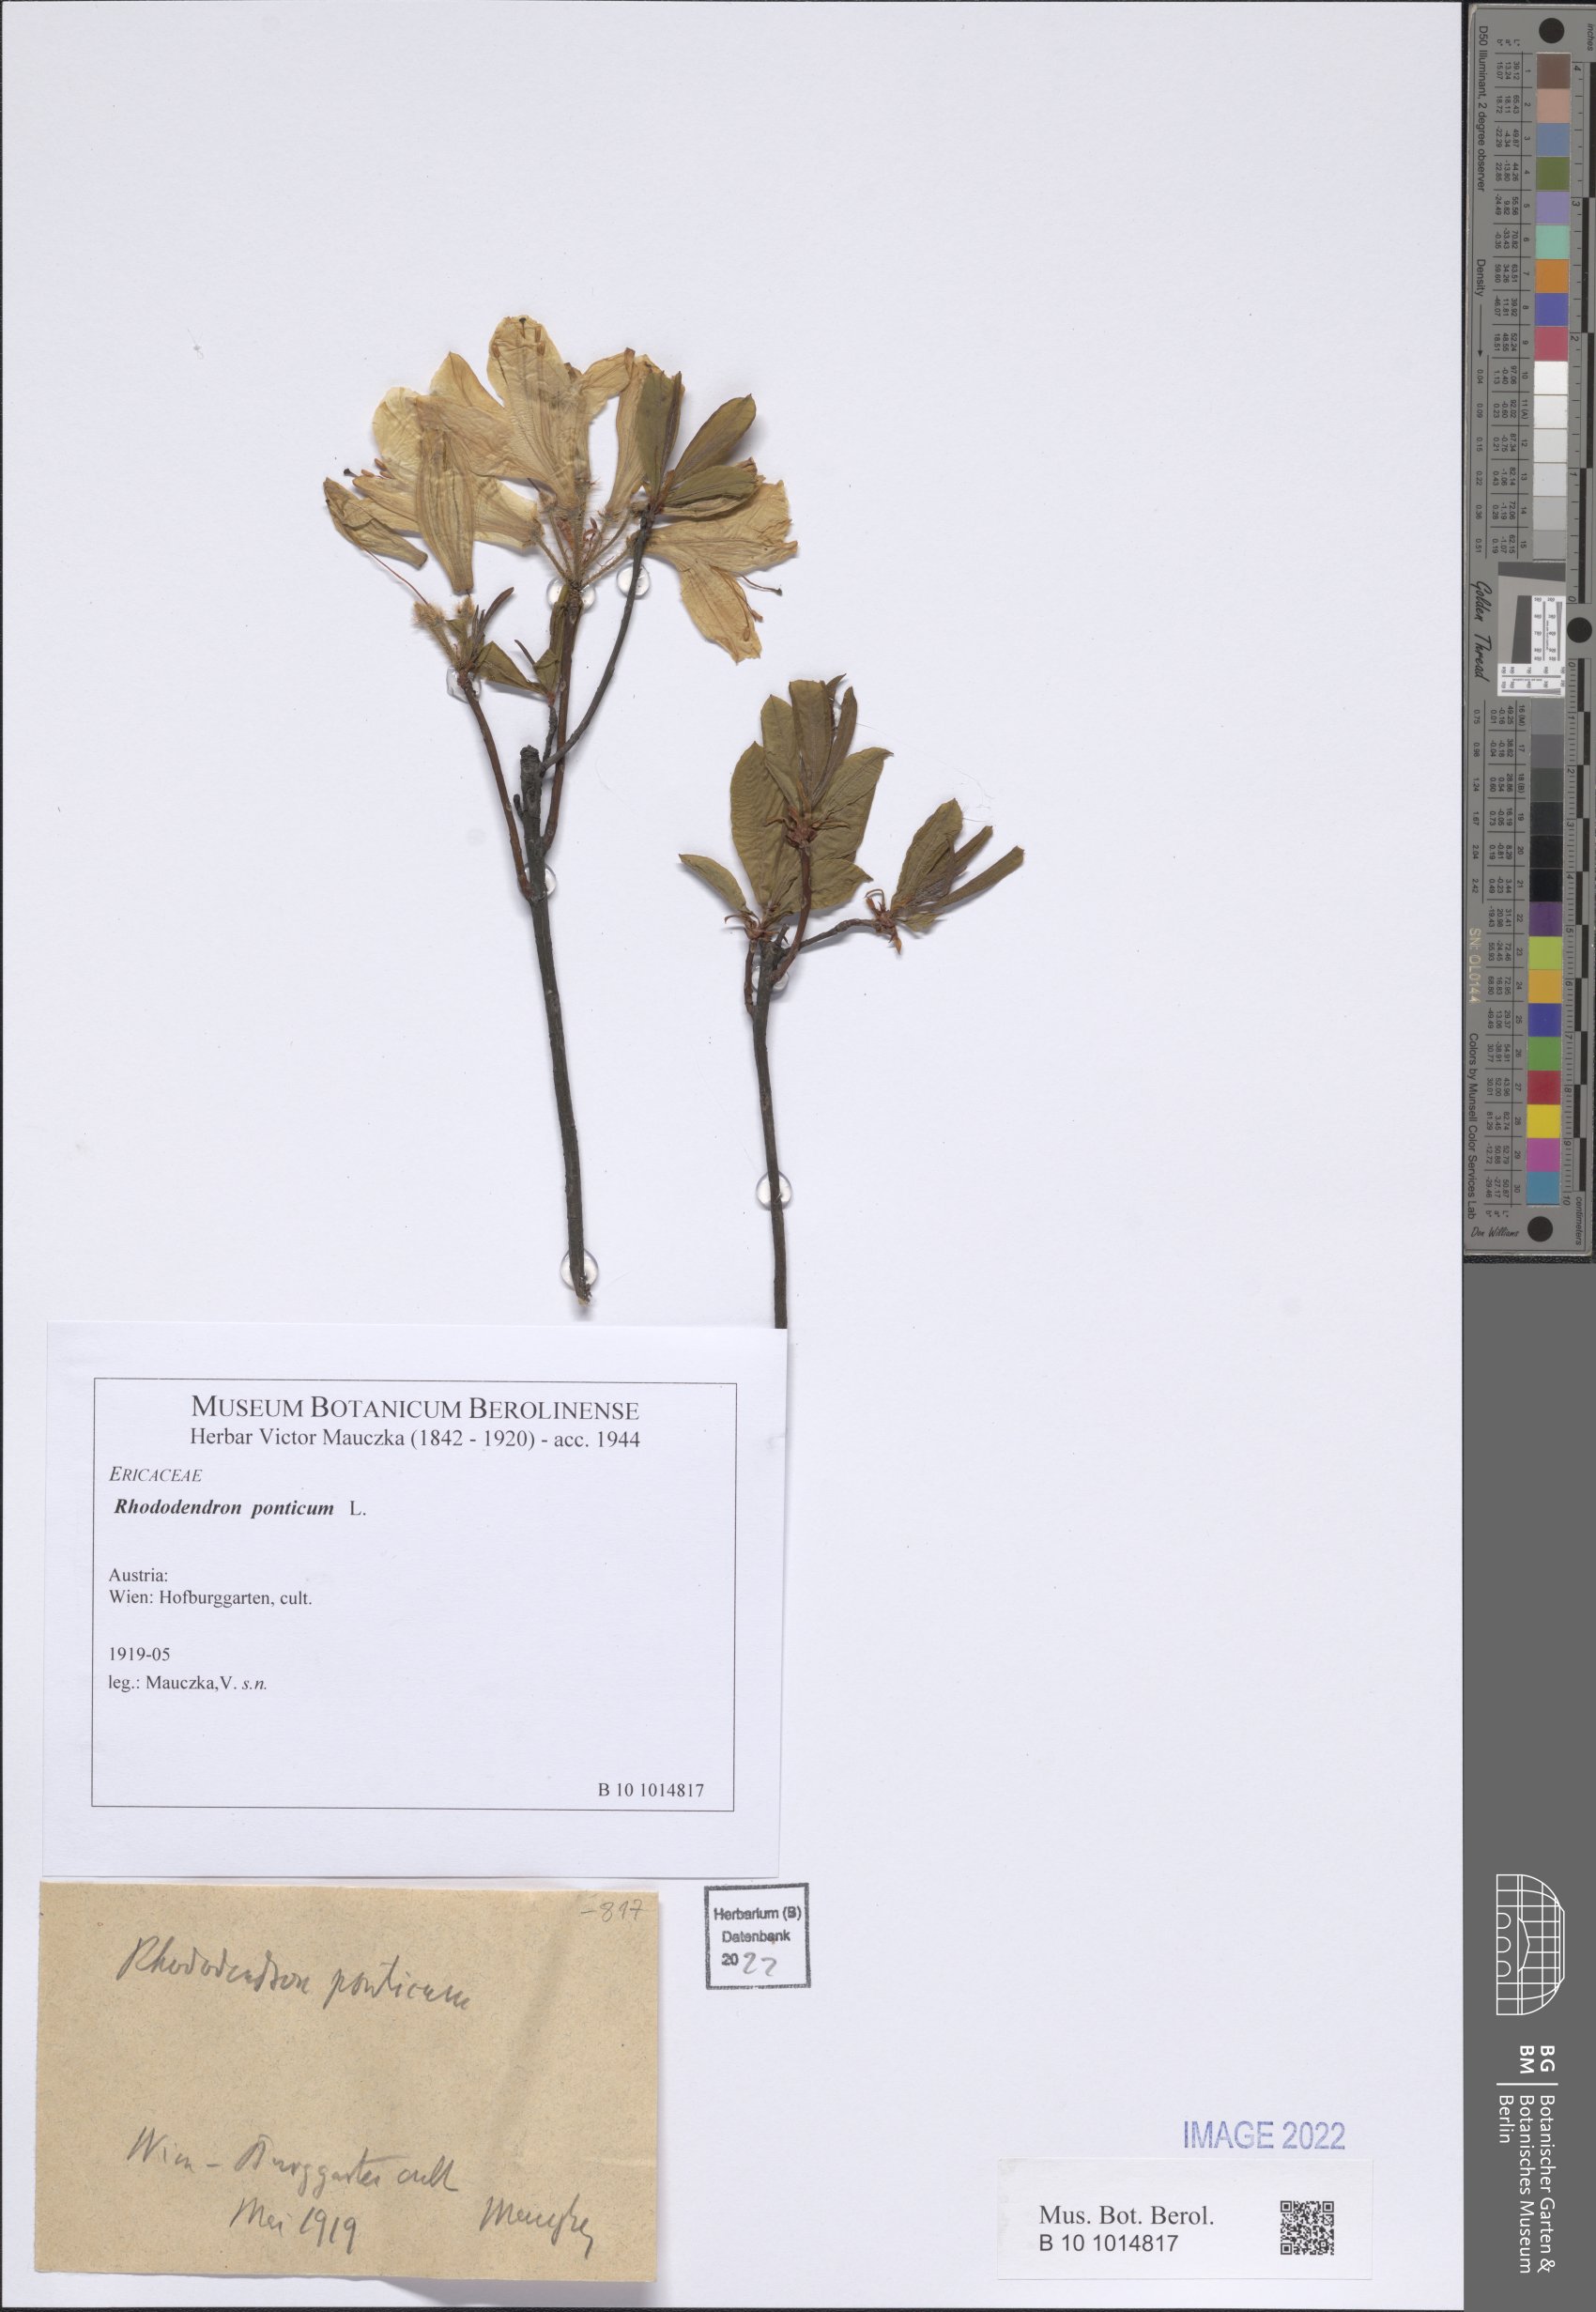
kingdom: Plantae
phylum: Tracheophyta
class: Magnoliopsida
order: Ericales
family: Ericaceae
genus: Rhododendron
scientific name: Rhododendron ponticum
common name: Rhododendron
